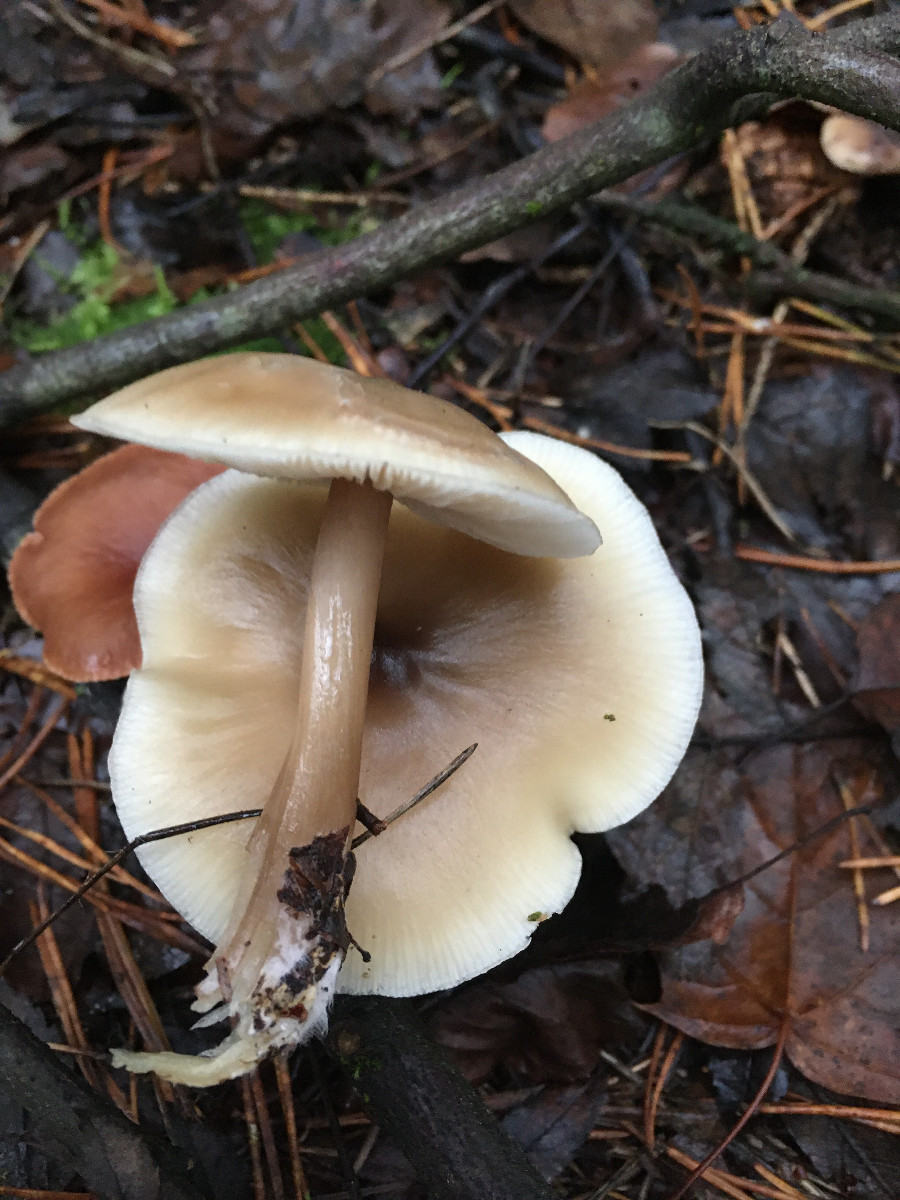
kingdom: Fungi
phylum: Basidiomycota
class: Agaricomycetes
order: Agaricales
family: Omphalotaceae
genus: Rhodocollybia
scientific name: Rhodocollybia asema
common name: horngrå fladhat
